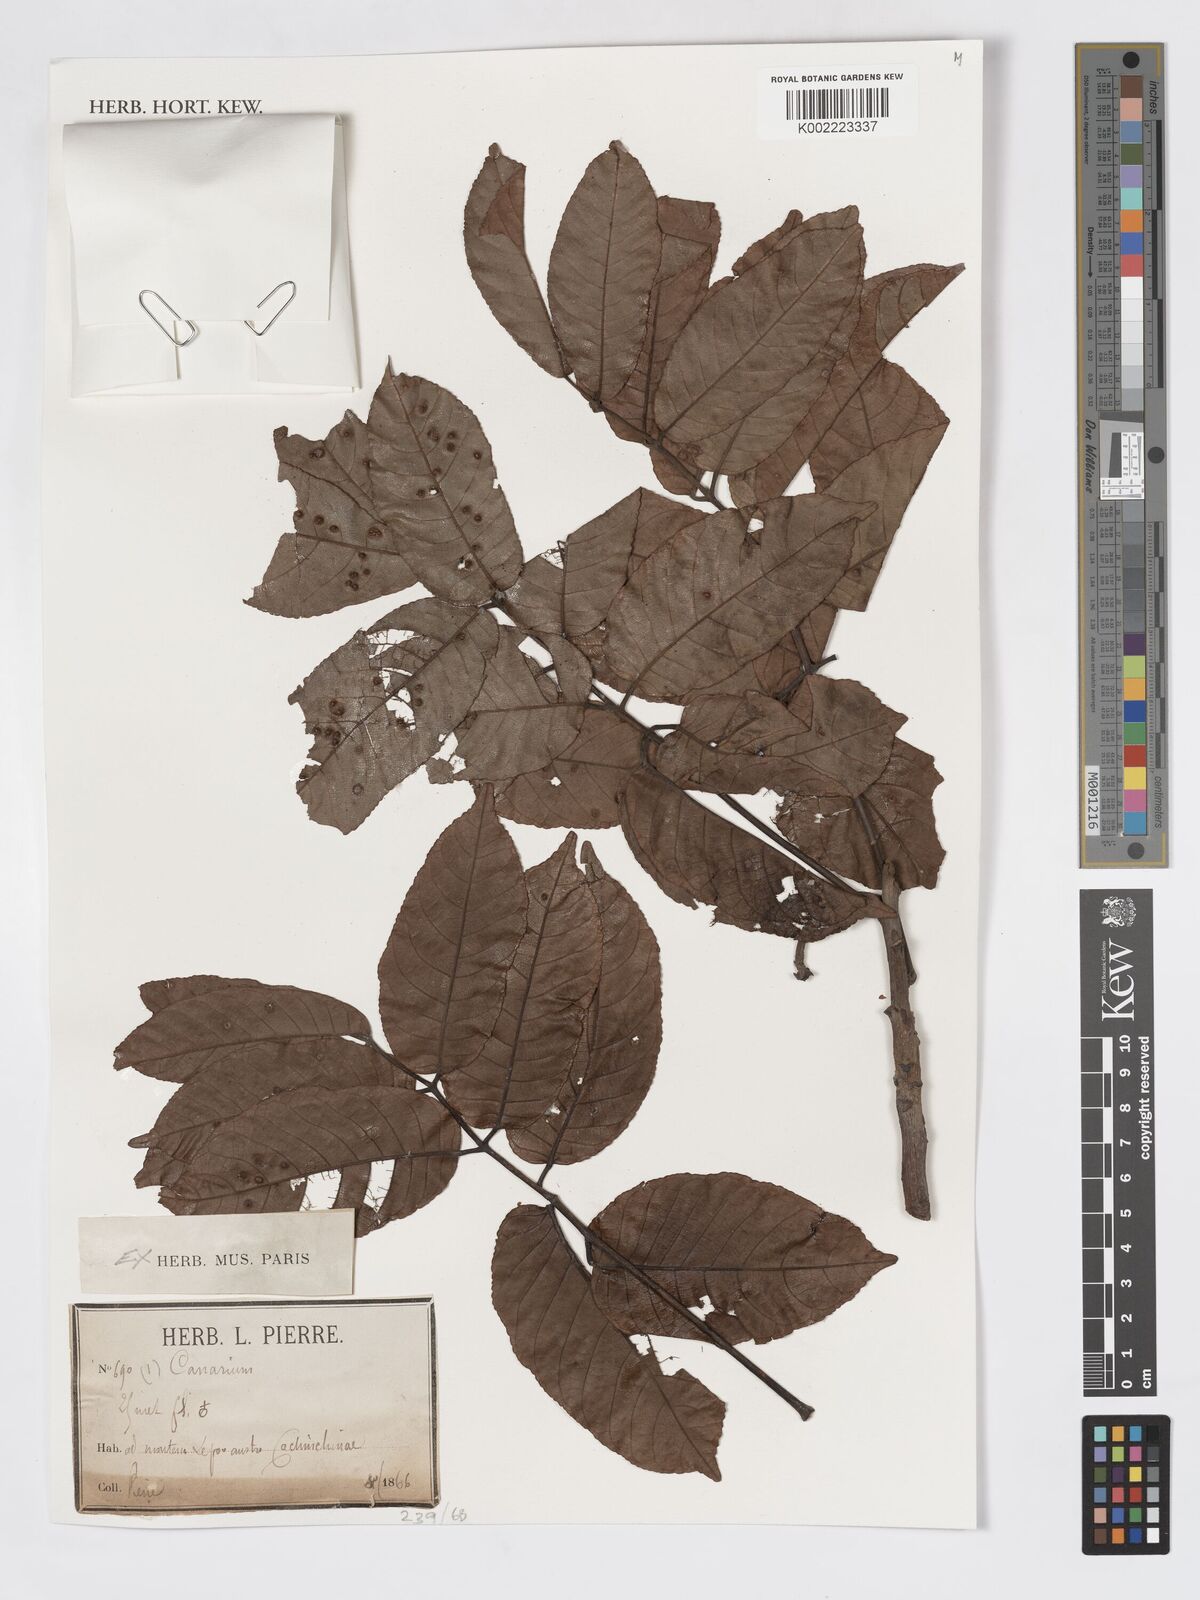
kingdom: Plantae
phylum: Tracheophyta
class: Magnoliopsida
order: Sapindales
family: Burseraceae
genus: Canarium
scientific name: Canarium
